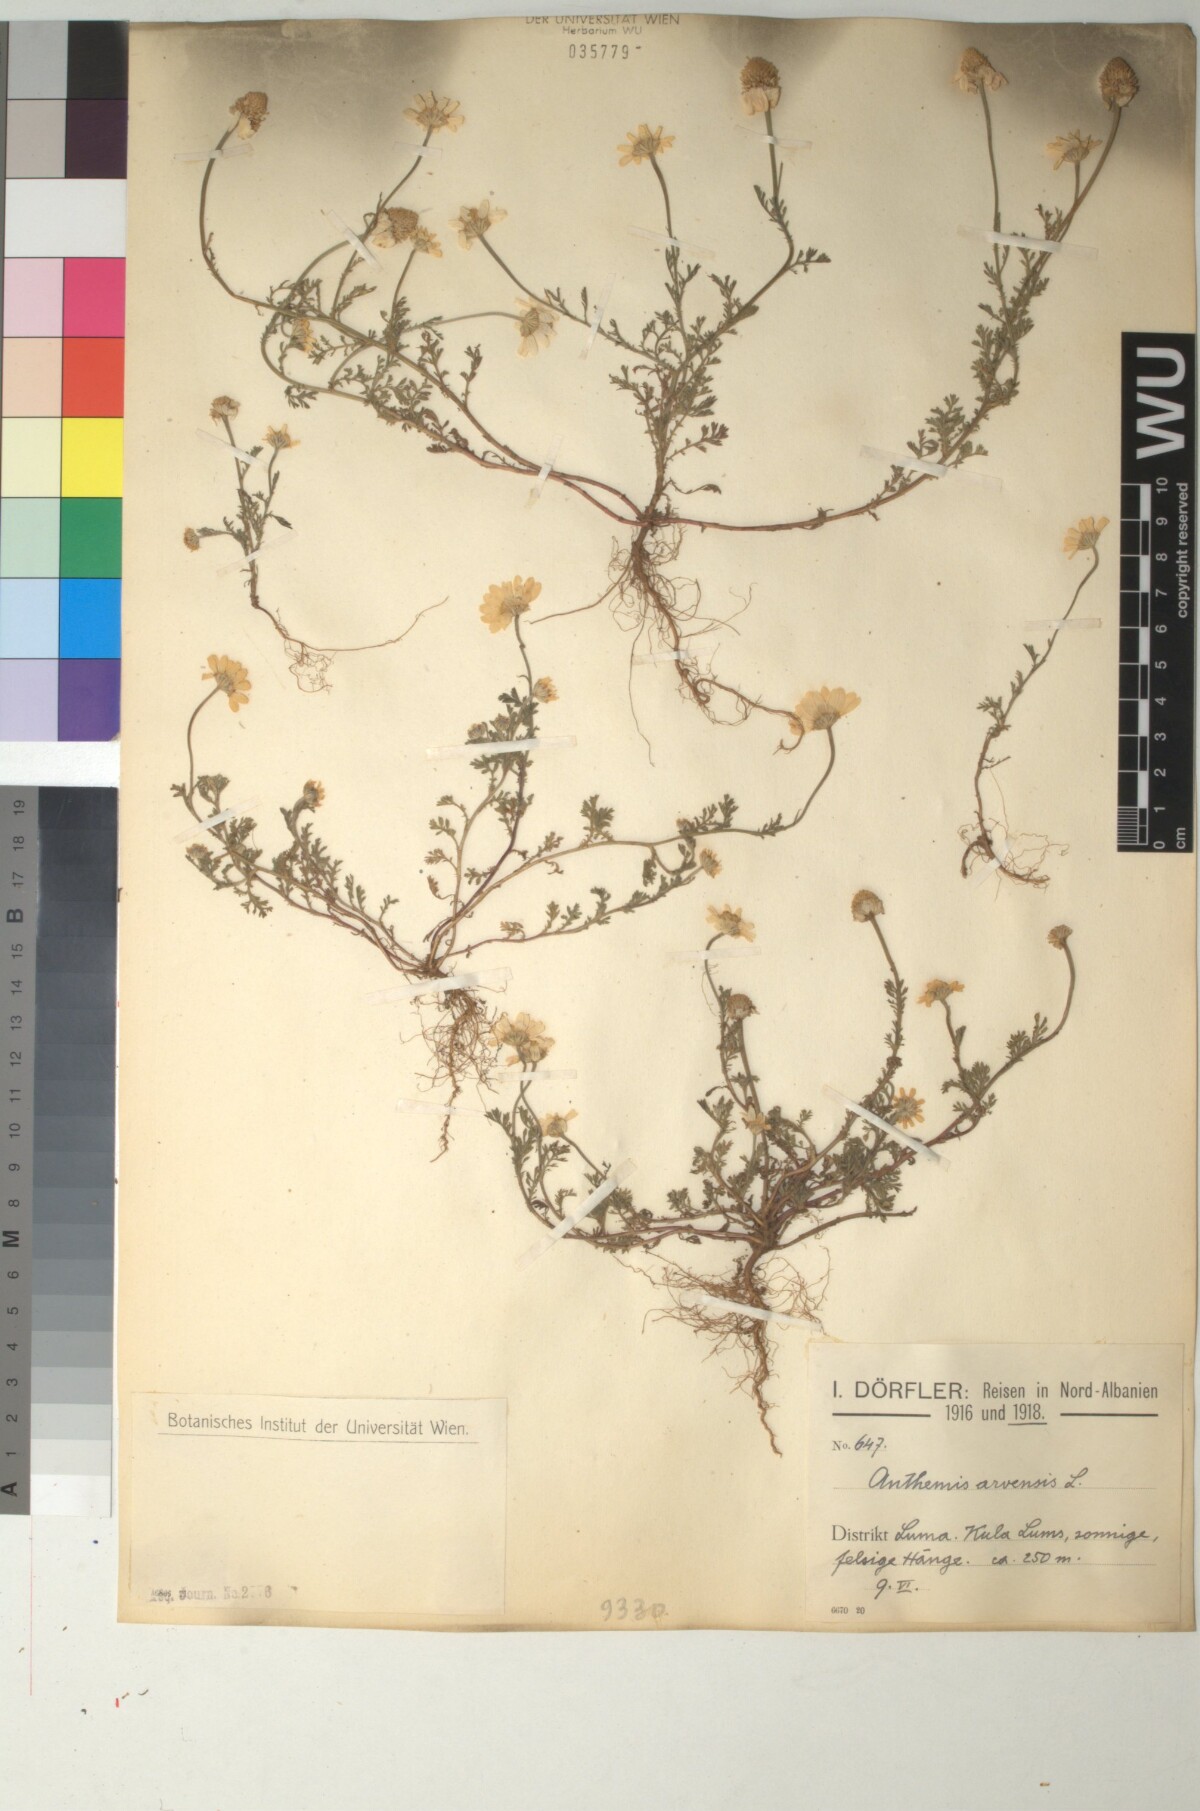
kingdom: Plantae
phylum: Tracheophyta
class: Magnoliopsida
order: Asterales
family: Asteraceae
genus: Anthemis
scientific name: Anthemis arvensis
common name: Corn chamomile
